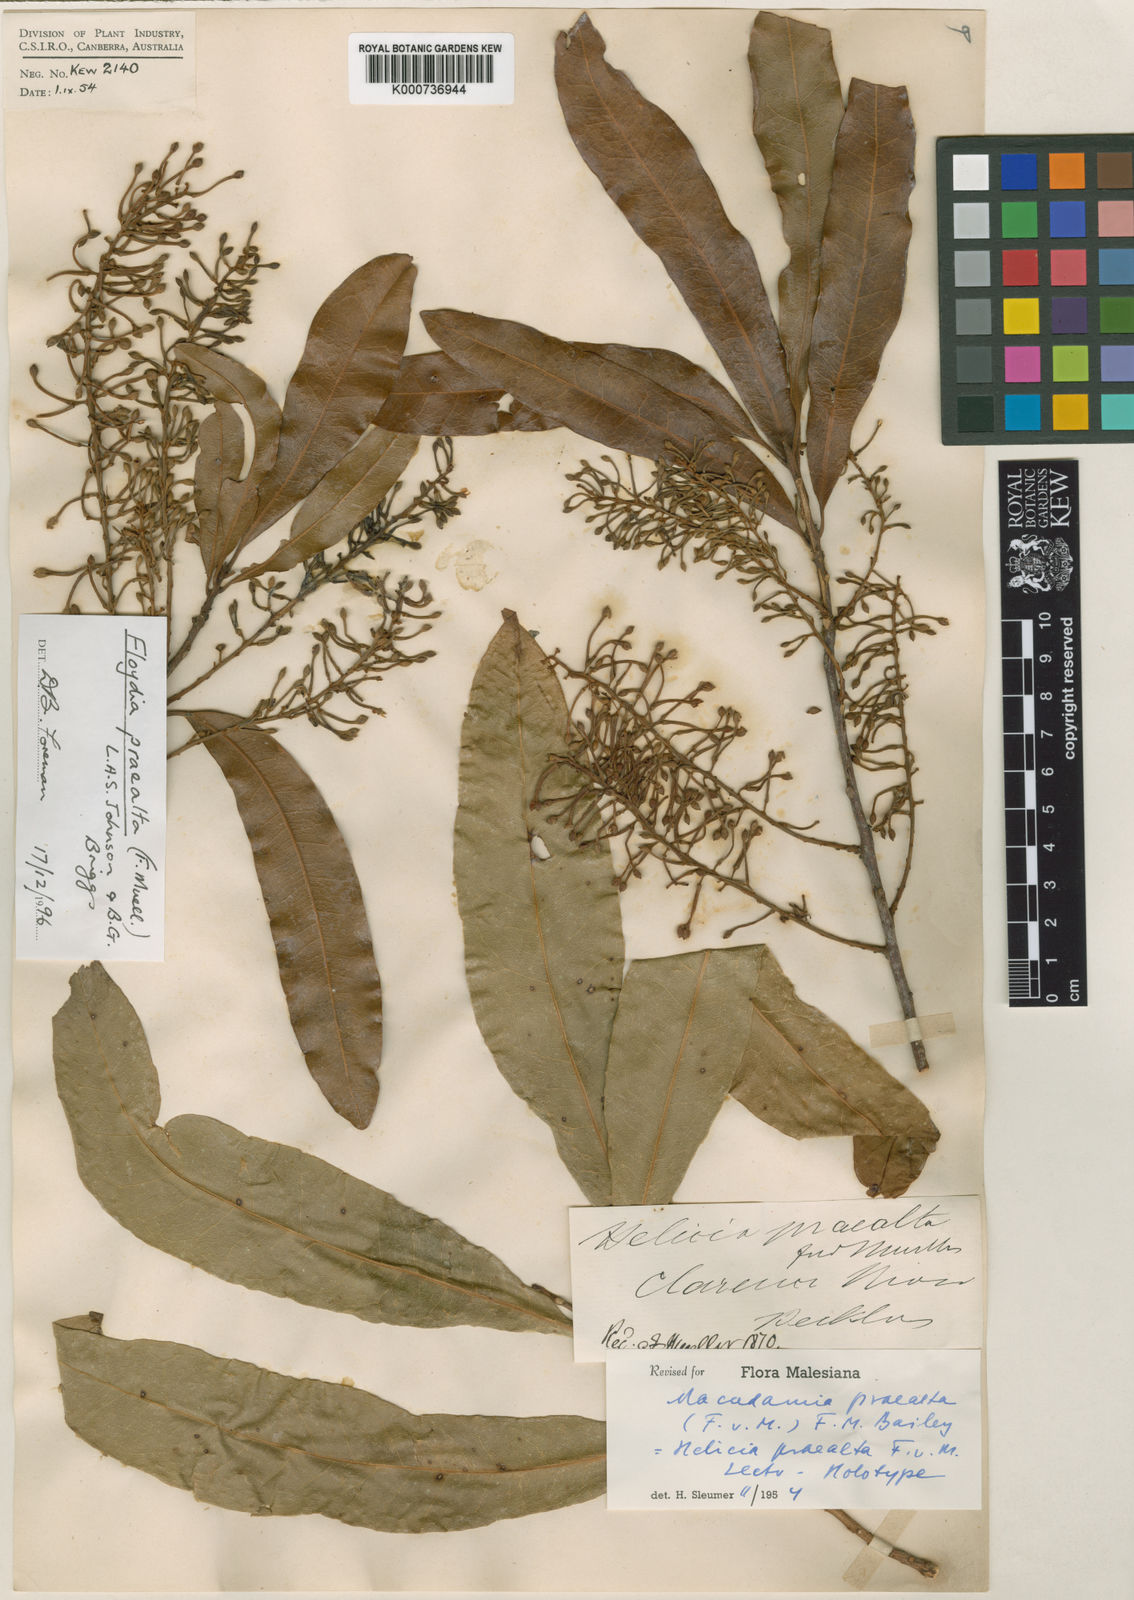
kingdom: Plantae
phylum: Tracheophyta
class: Magnoliopsida
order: Proteales
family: Proteaceae
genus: Floydia
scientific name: Floydia praealta
